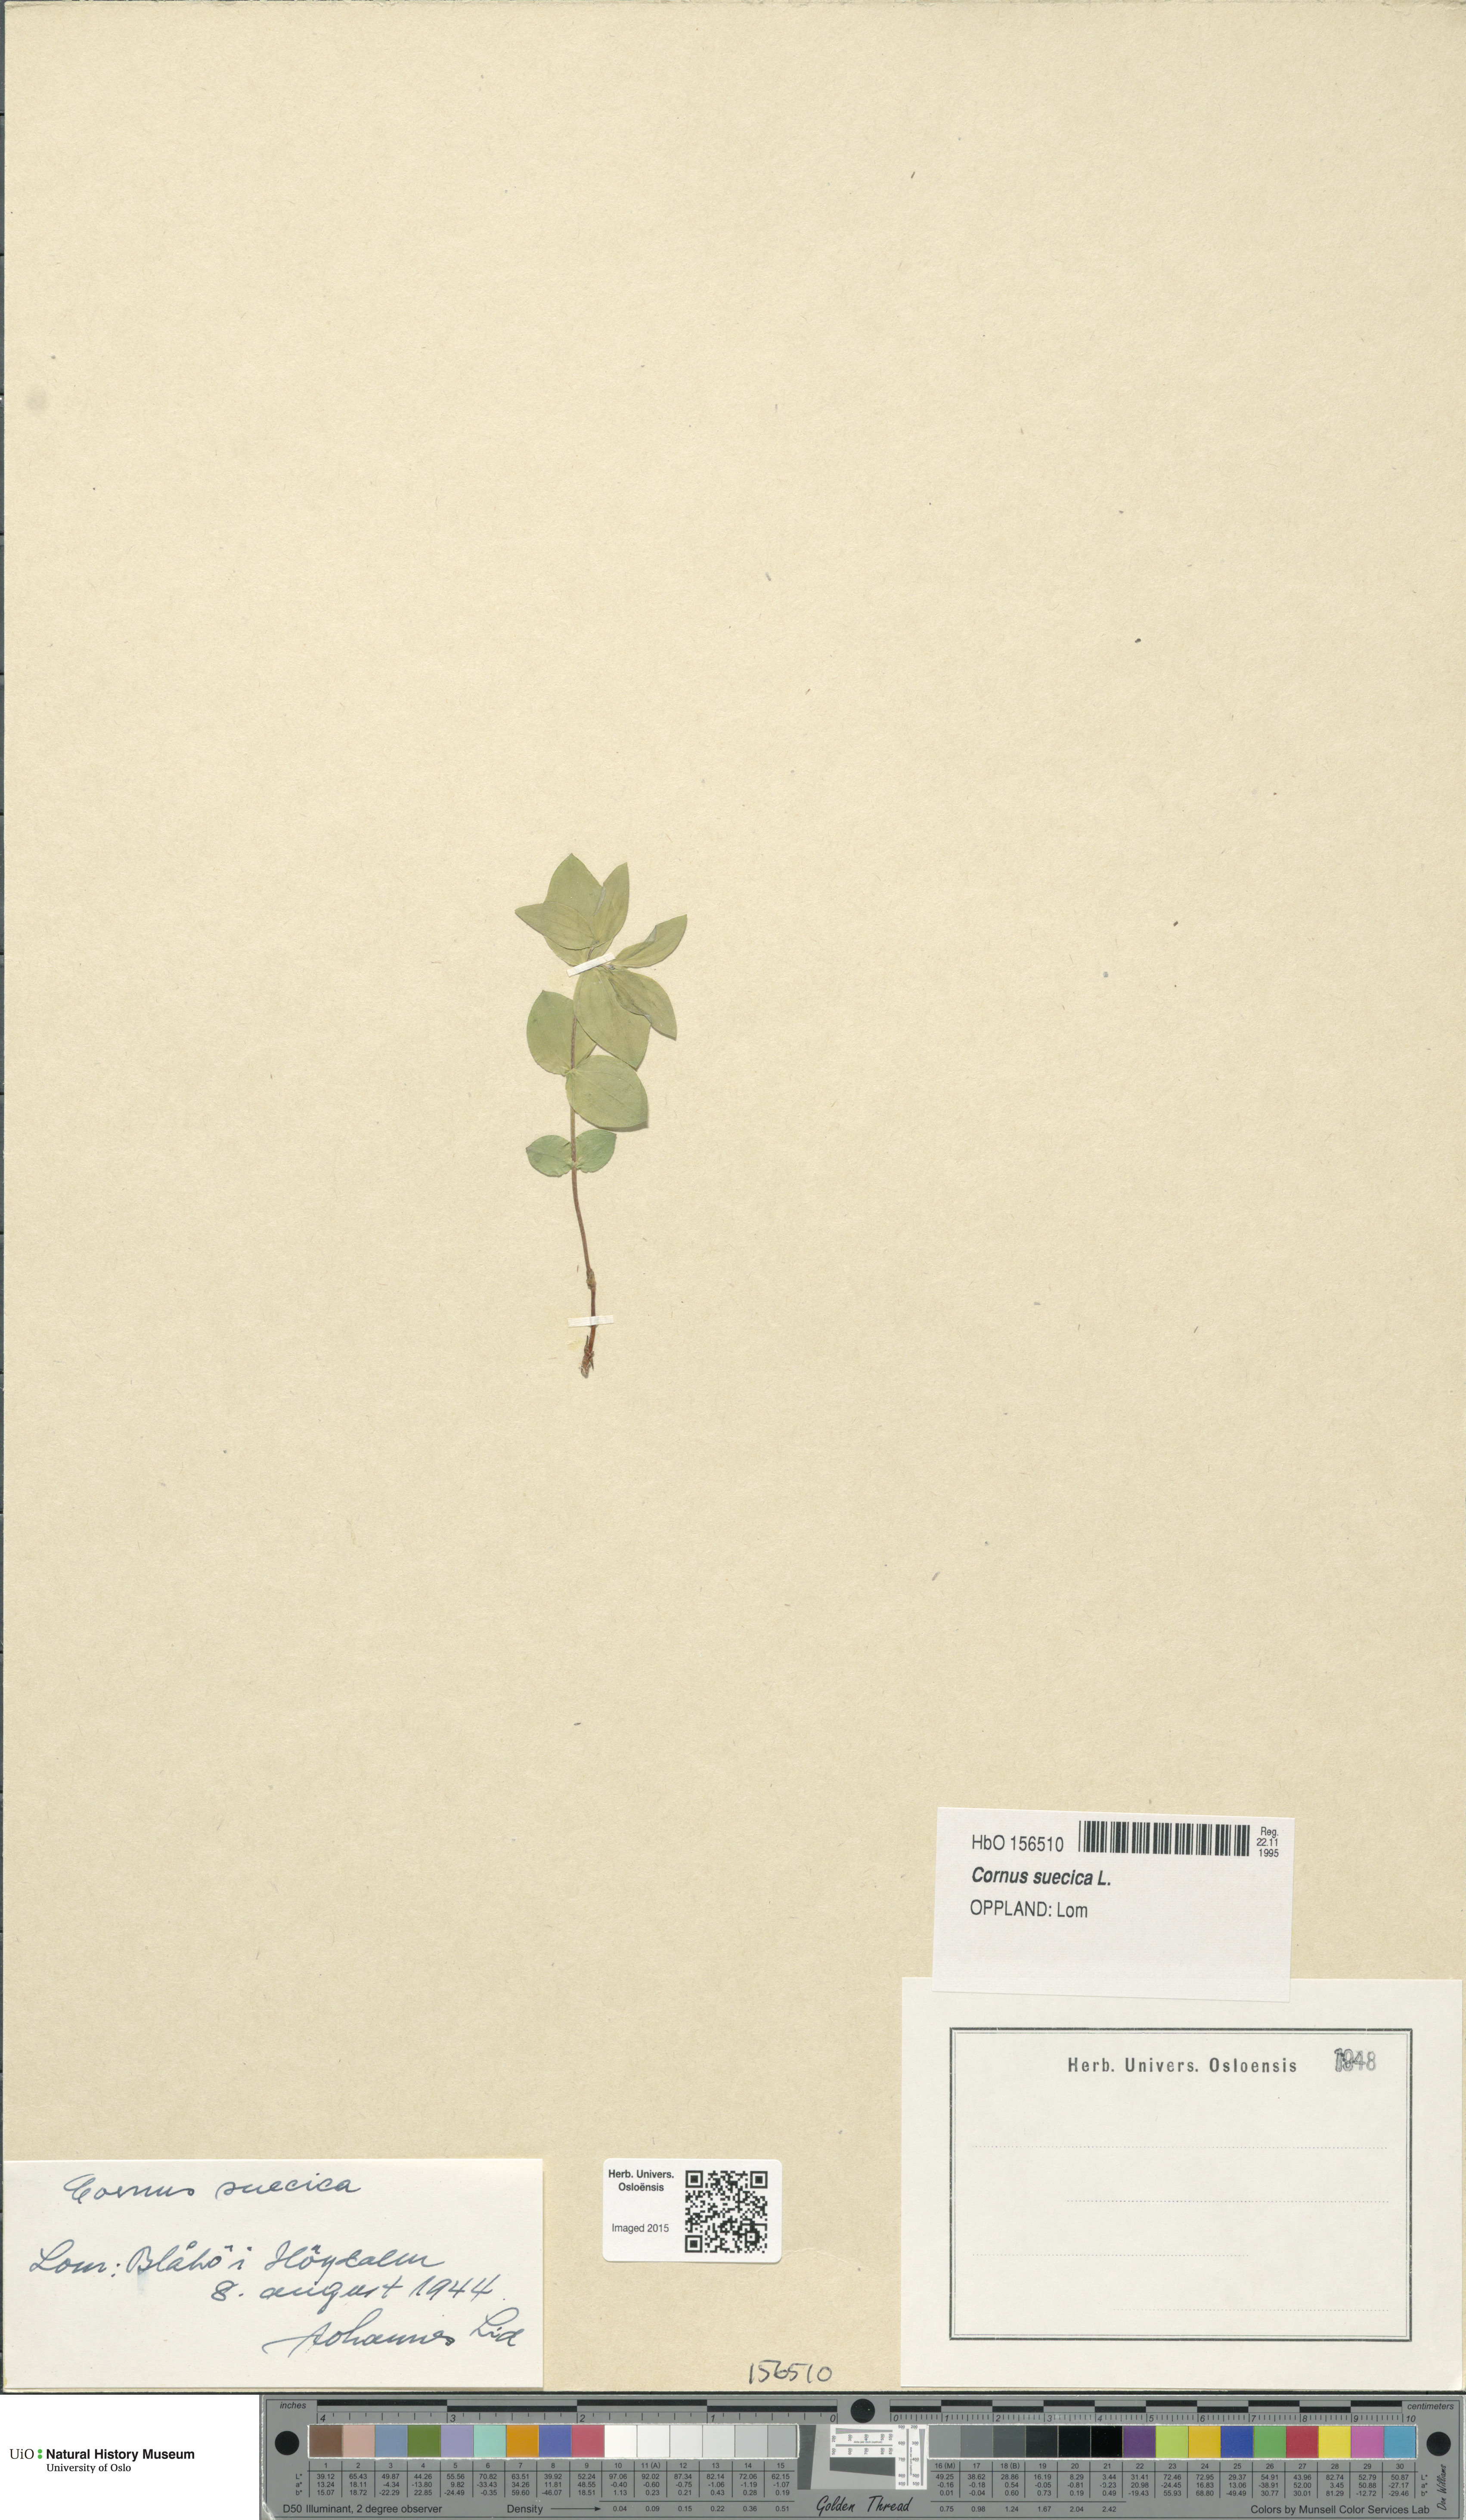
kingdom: Plantae
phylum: Tracheophyta
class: Magnoliopsida
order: Cornales
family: Cornaceae
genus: Cornus
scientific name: Cornus suecica
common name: Dwarf cornel
